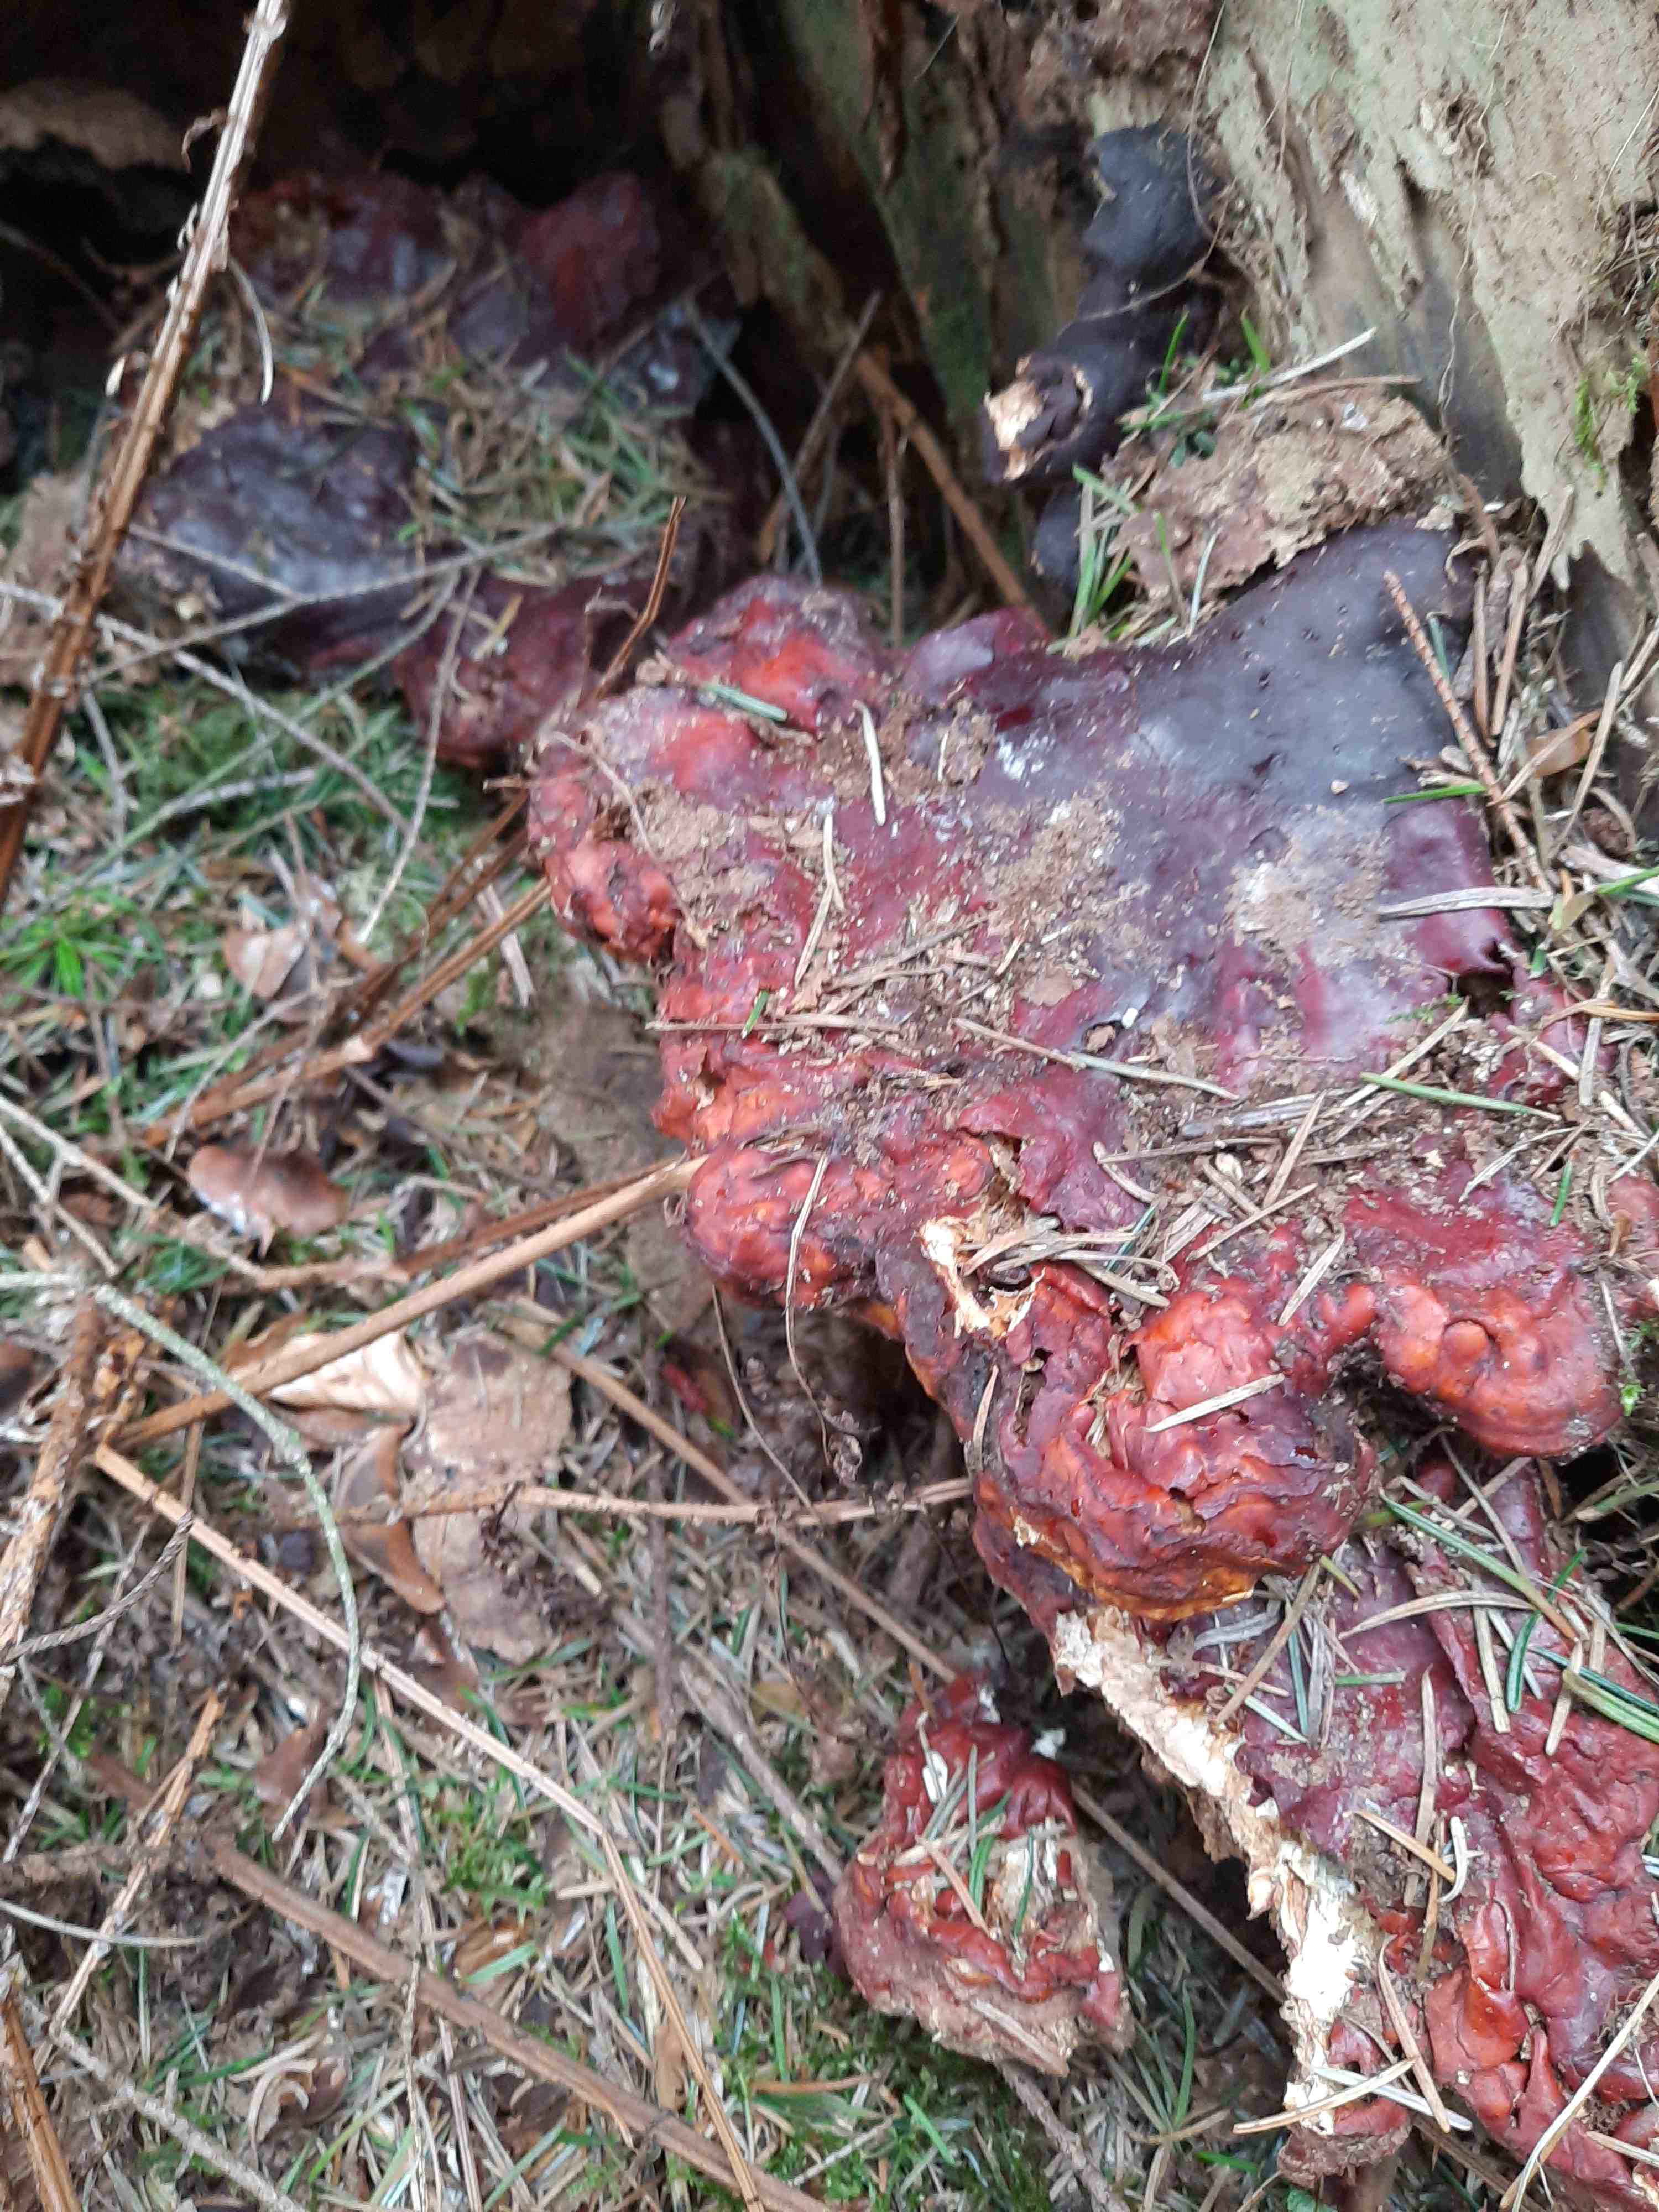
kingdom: Fungi
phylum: Basidiomycota
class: Agaricomycetes
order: Polyporales
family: Polyporaceae
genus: Ganoderma
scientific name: Ganoderma lucidum
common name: skinnende lakporesvamp
